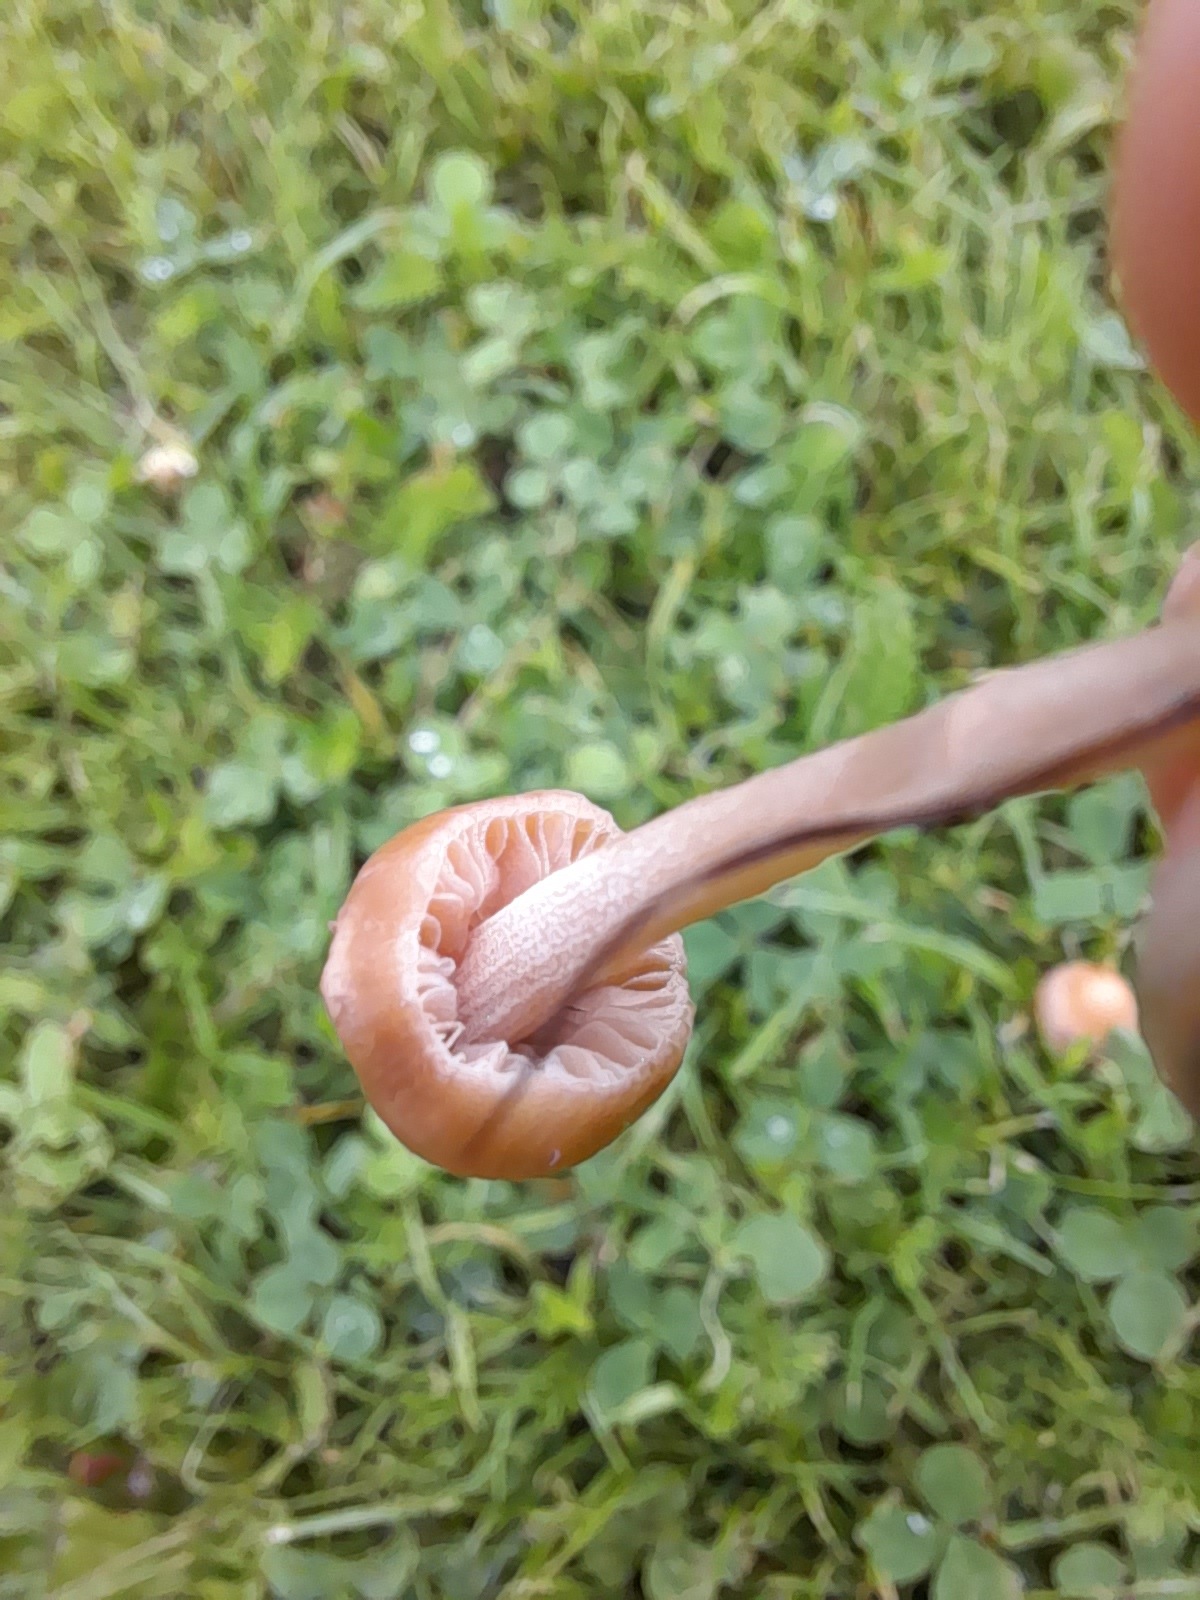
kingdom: Fungi
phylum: Basidiomycota
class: Agaricomycetes
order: Agaricales
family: Bolbitiaceae
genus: Panaeolina
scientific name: Panaeolina foenisecii
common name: høslætsvamp
